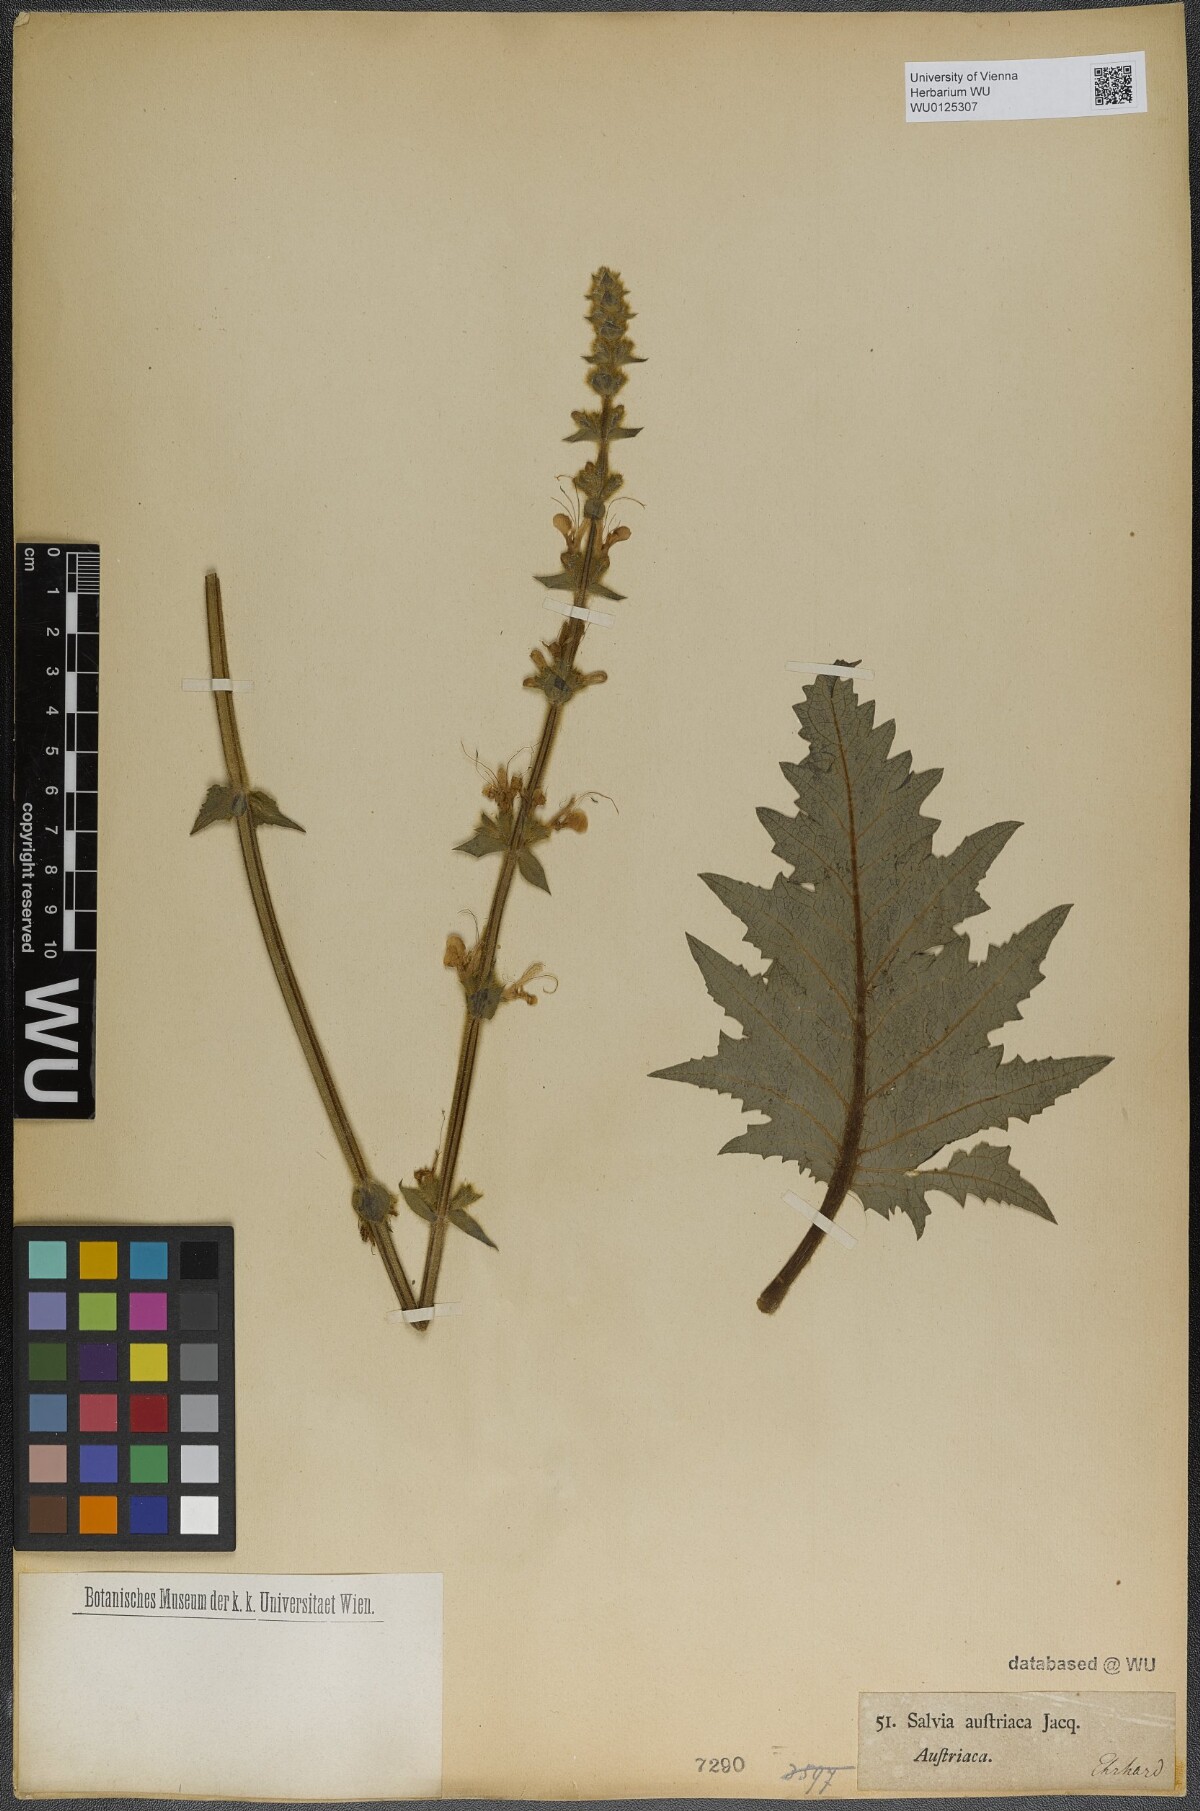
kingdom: Plantae
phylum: Tracheophyta
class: Magnoliopsida
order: Lamiales
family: Lamiaceae
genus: Salvia
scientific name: Salvia austriaca
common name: Austrian sage
